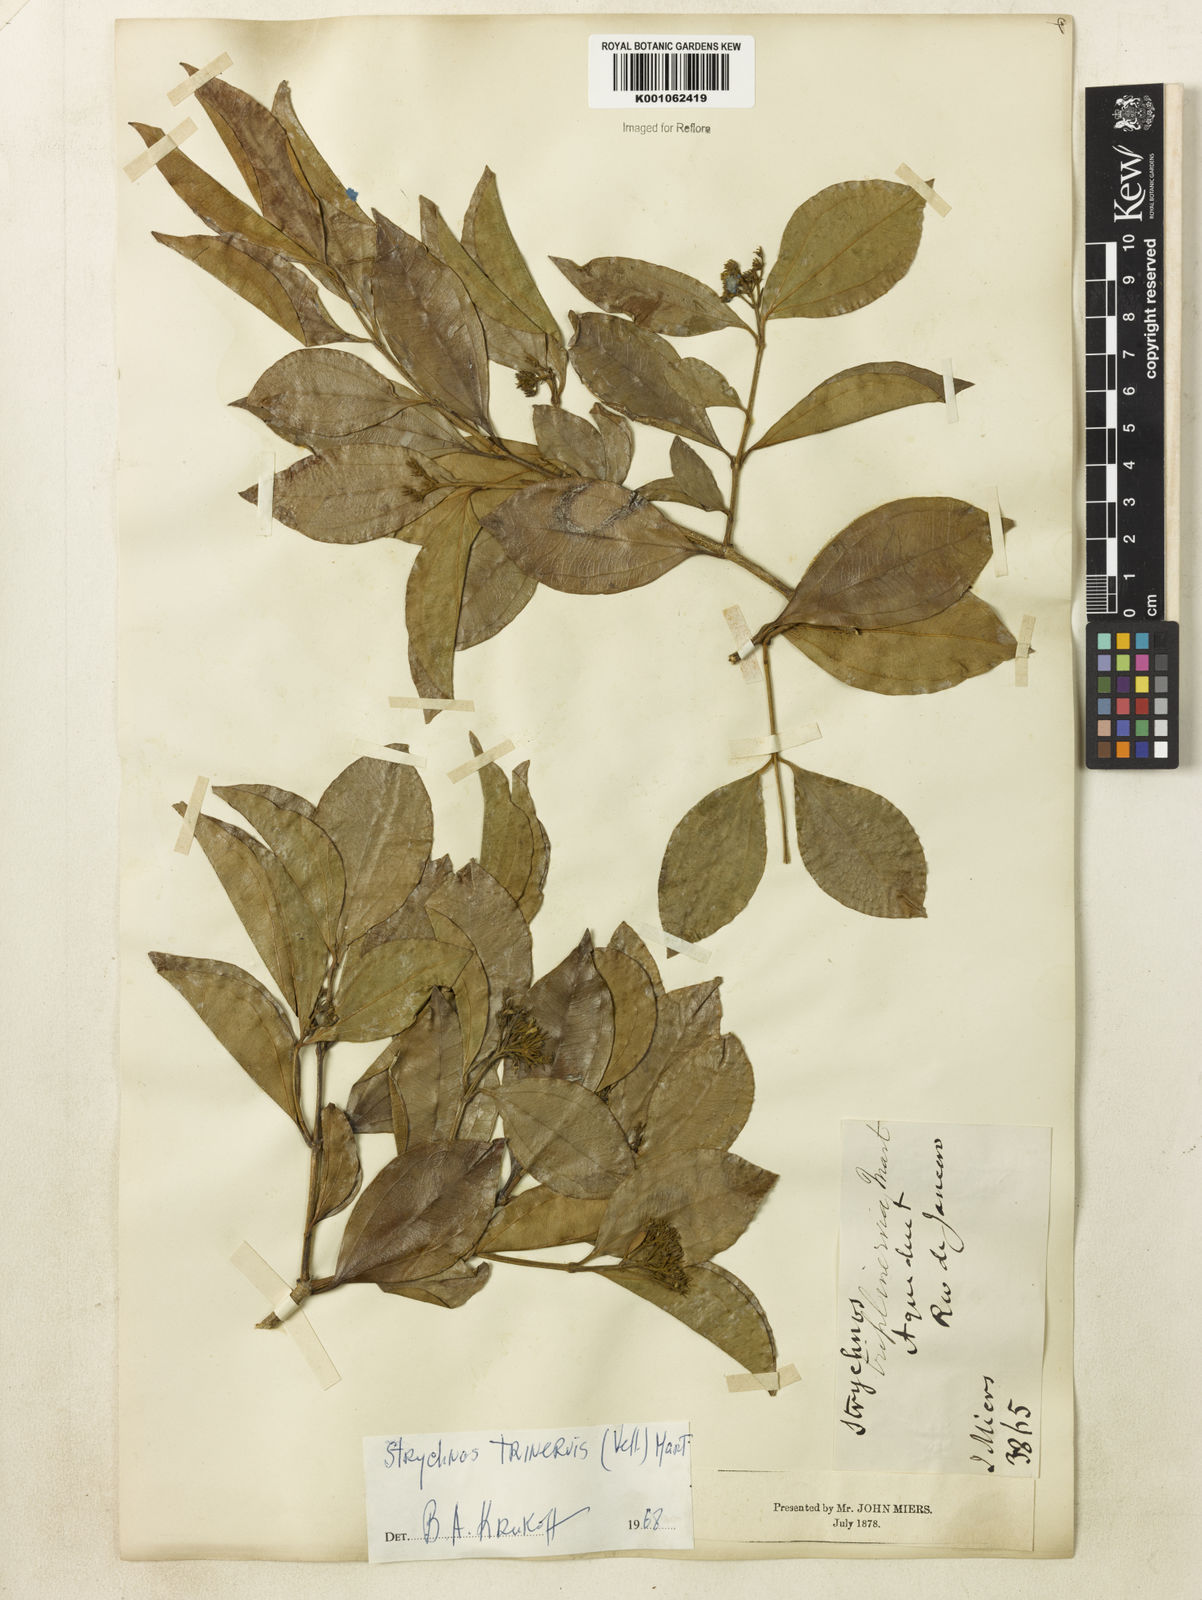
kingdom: Plantae
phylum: Tracheophyta
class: Magnoliopsida
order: Gentianales
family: Loganiaceae
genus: Strychnos
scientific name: Strychnos
